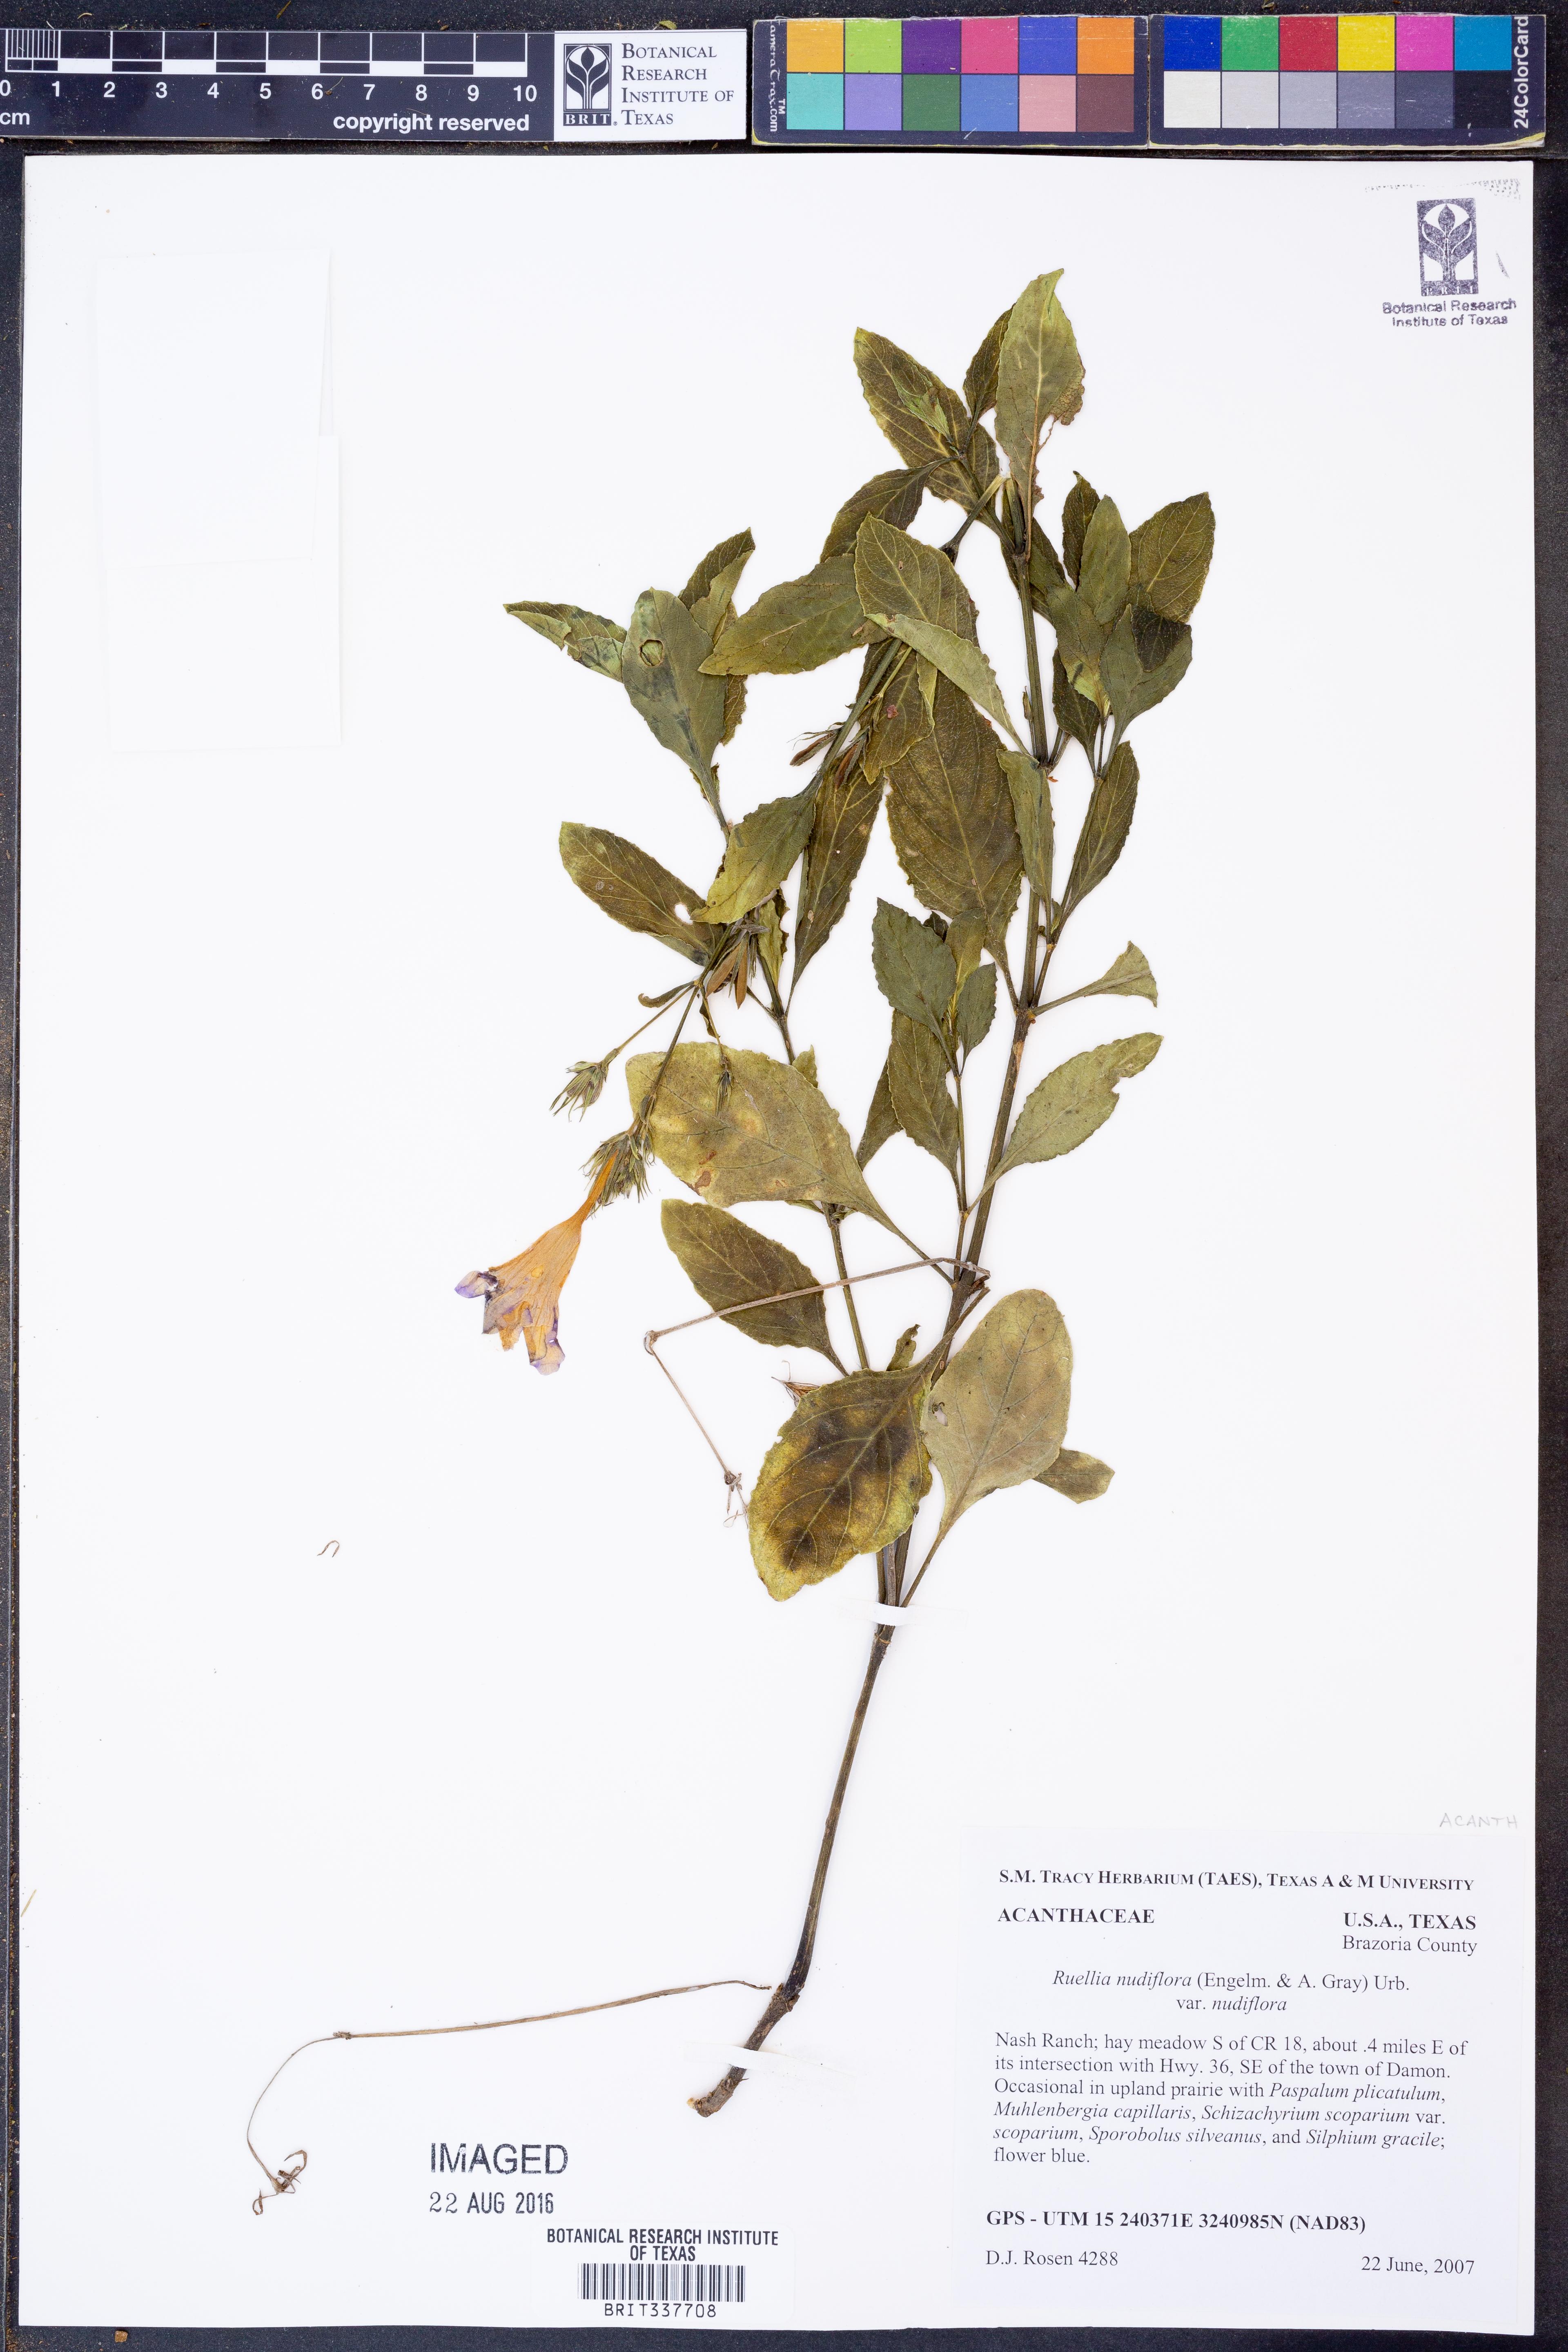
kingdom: Plantae
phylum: Tracheophyta
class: Magnoliopsida
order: Lamiales
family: Acanthaceae
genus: Ruellia
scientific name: Ruellia ciliatiflora
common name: Hairyflower wild petunia
